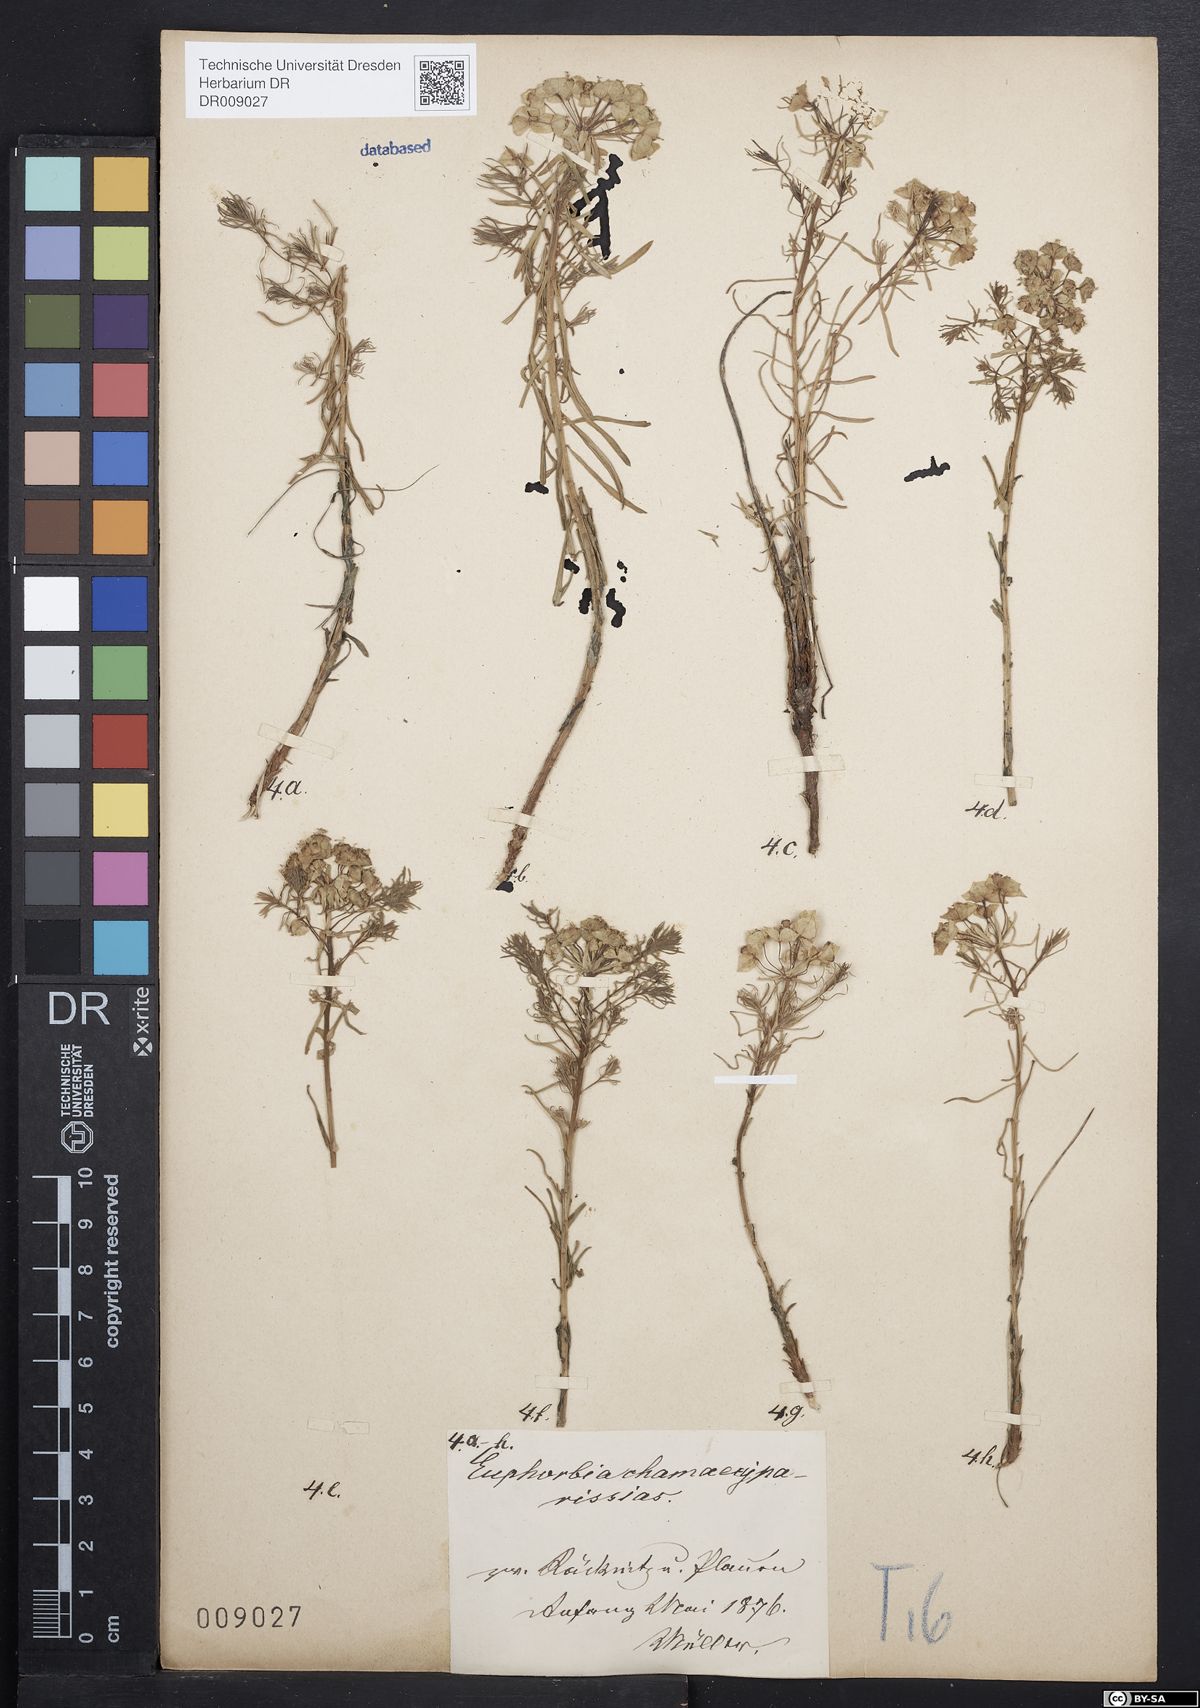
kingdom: Plantae
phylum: Tracheophyta
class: Magnoliopsida
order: Malpighiales
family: Euphorbiaceae
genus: Euphorbia
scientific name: Euphorbia cyparissias
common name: Cypress spurge
